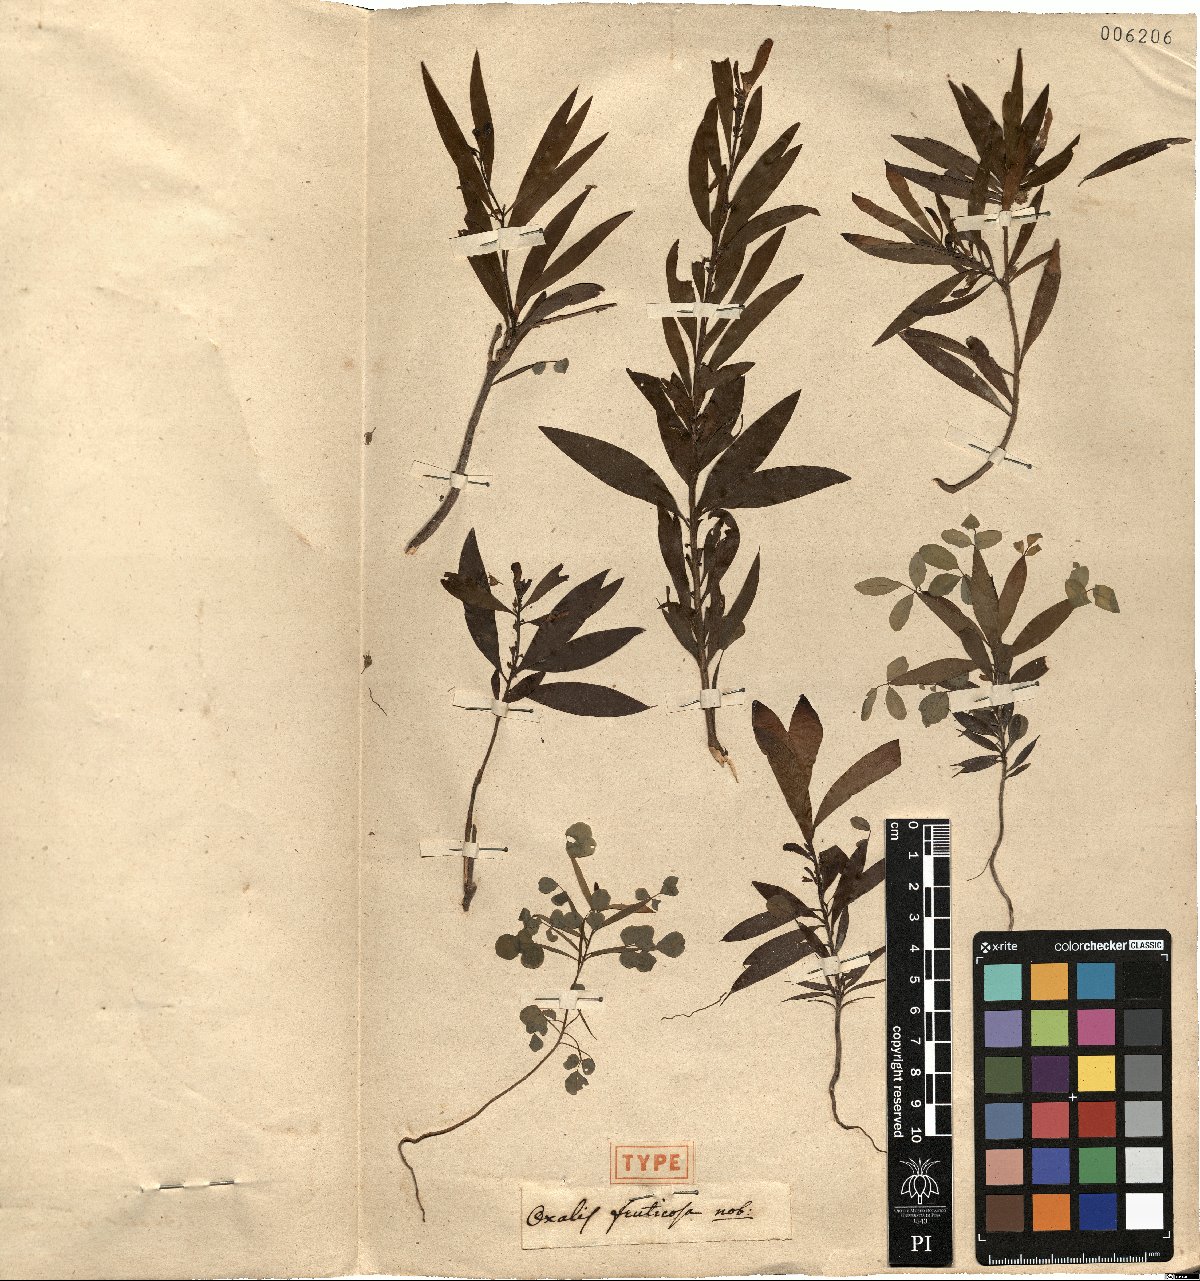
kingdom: Plantae
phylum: Tracheophyta
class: Magnoliopsida
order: Oxalidales
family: Oxalidaceae
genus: Oxalis
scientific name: Oxalis fruticosa
